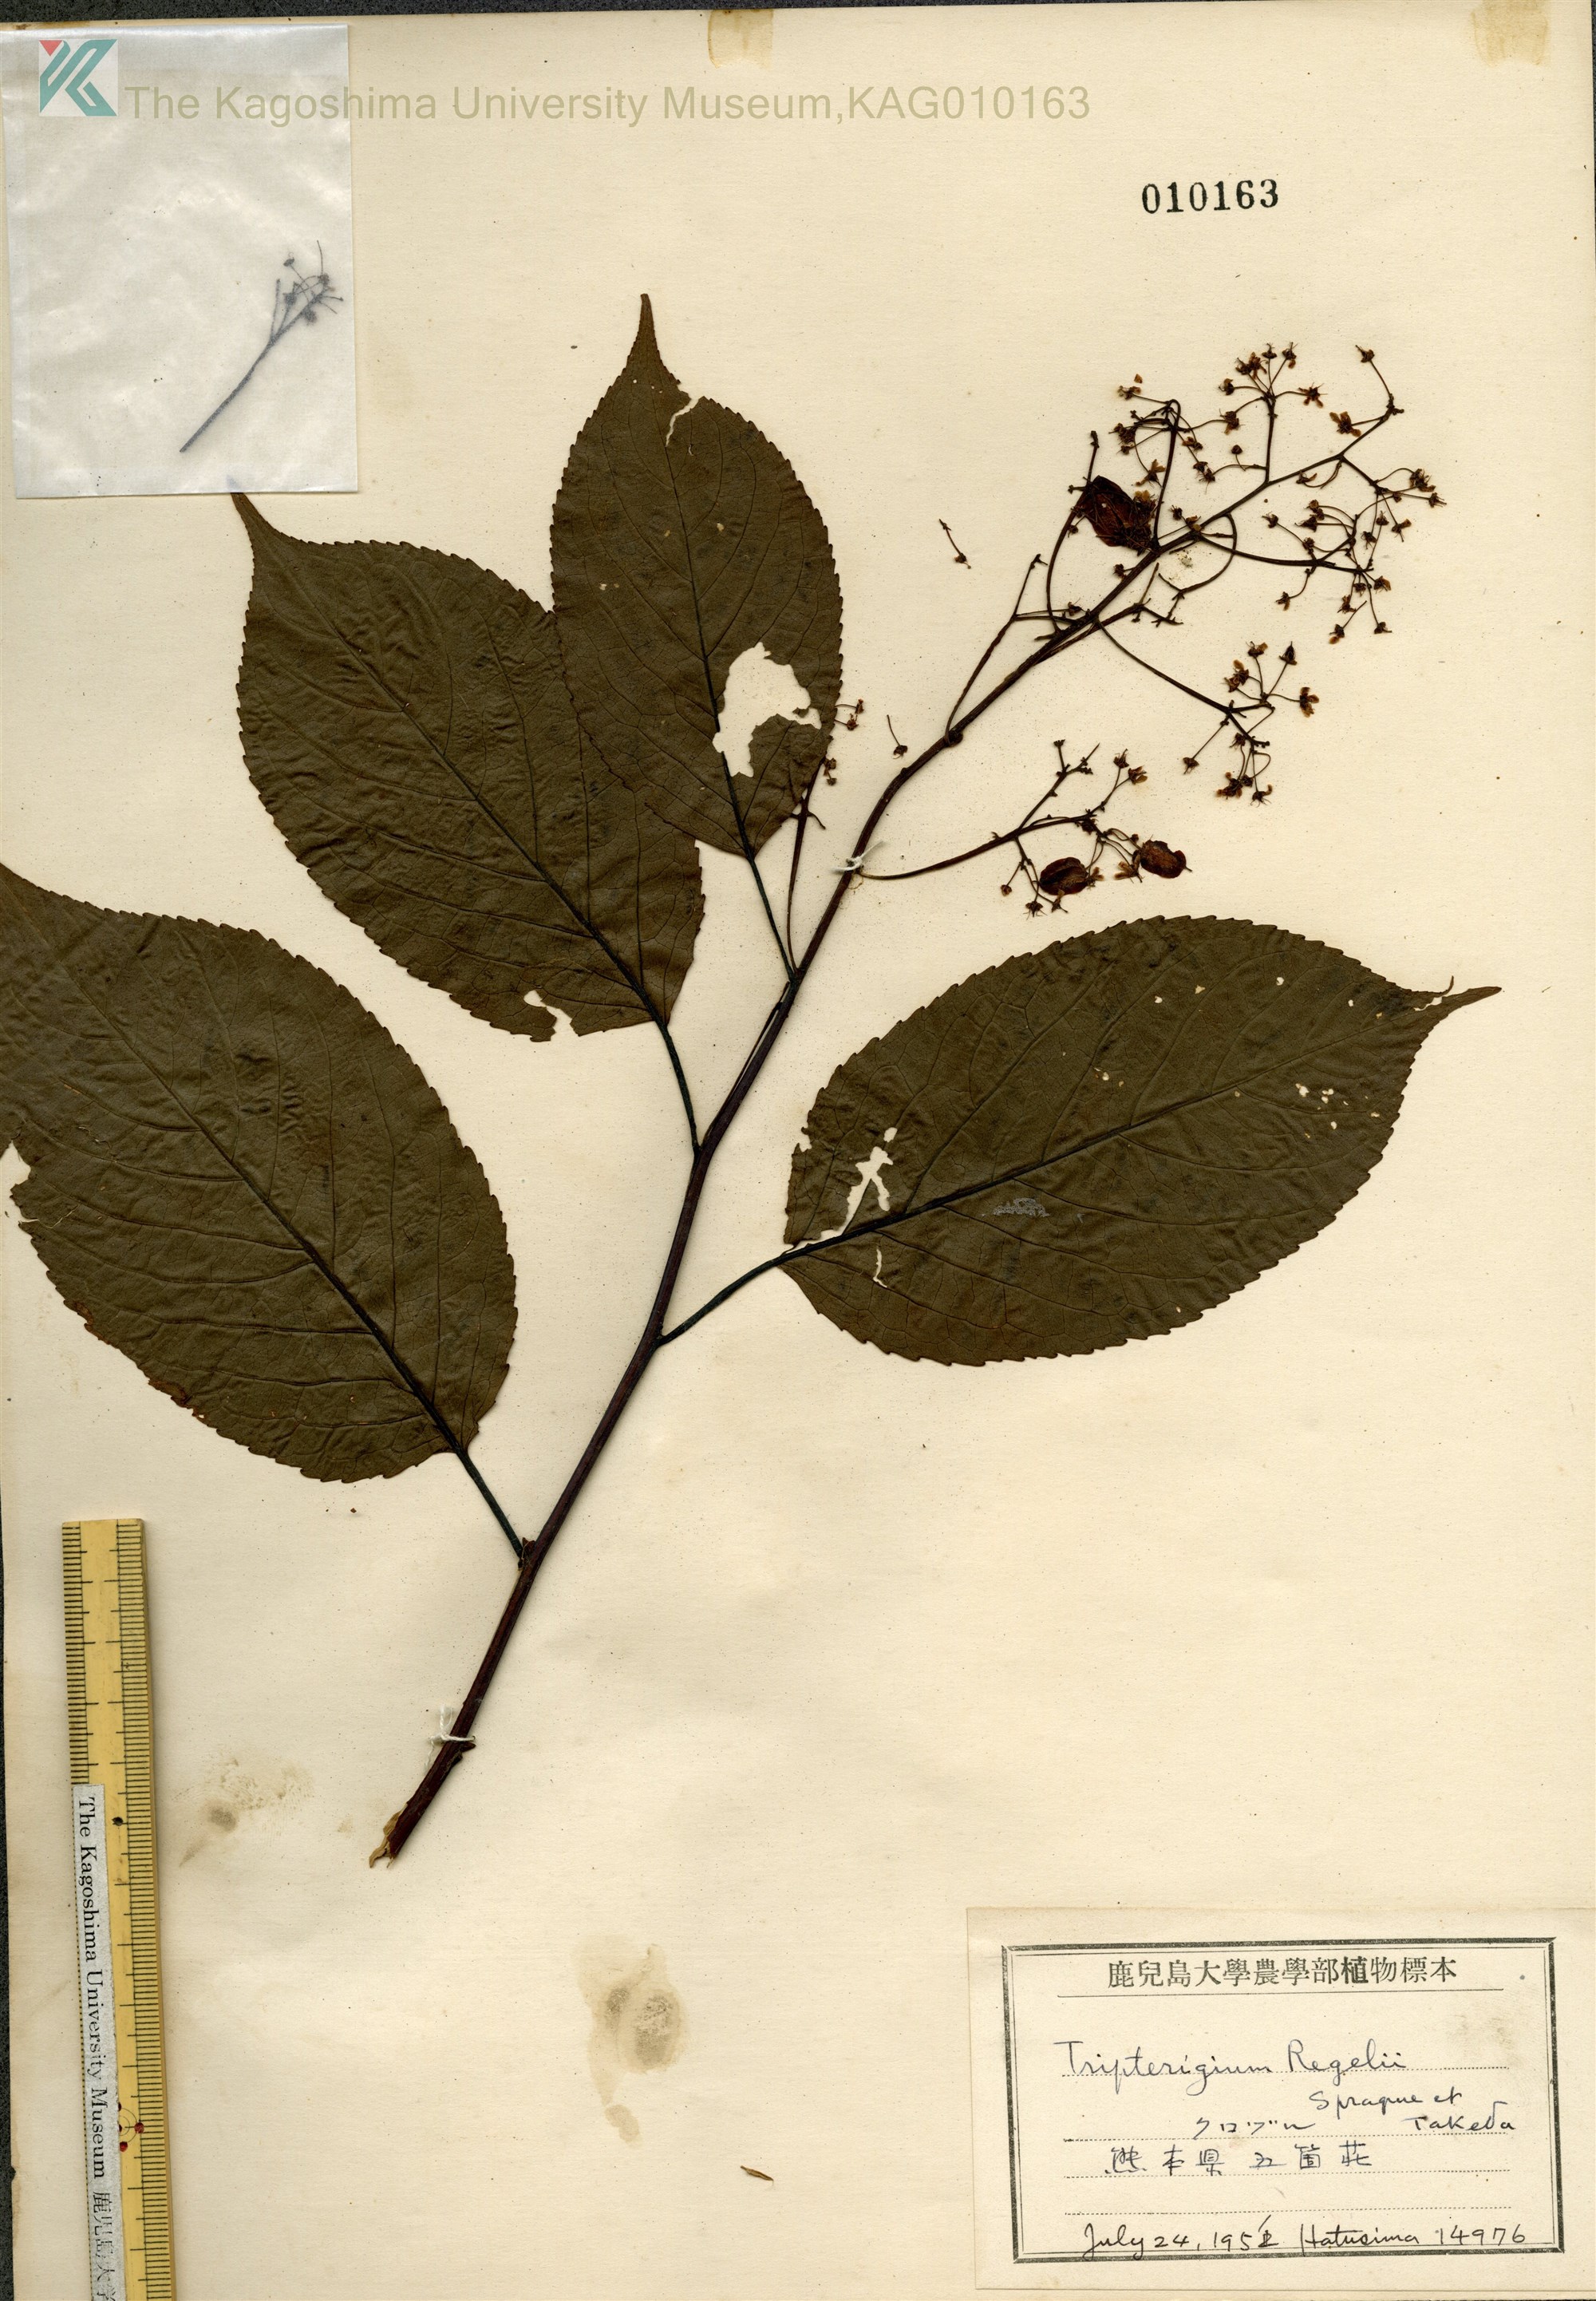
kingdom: Plantae
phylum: Tracheophyta
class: Magnoliopsida
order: Celastrales
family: Celastraceae
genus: Tripterygium
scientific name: Tripterygium wilfordii
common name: クロヅル
